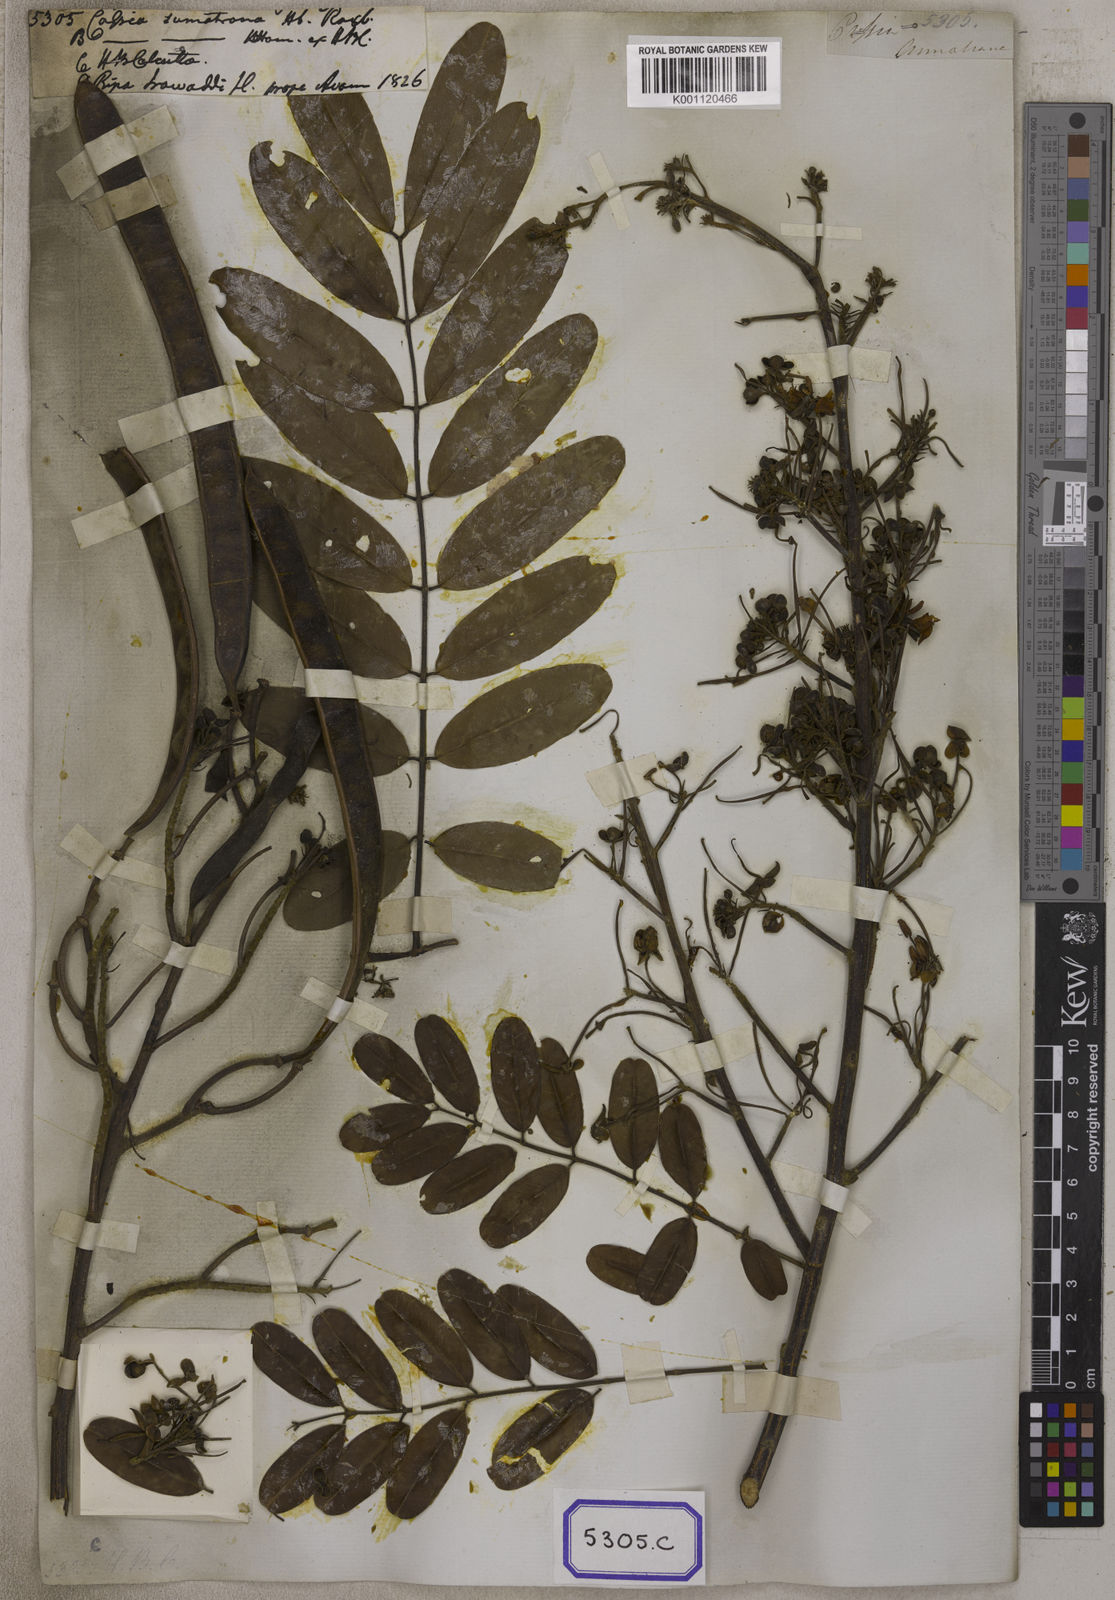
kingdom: Plantae
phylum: Tracheophyta
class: Magnoliopsida
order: Fabales
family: Fabaceae
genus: Cassia
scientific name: Cassia
